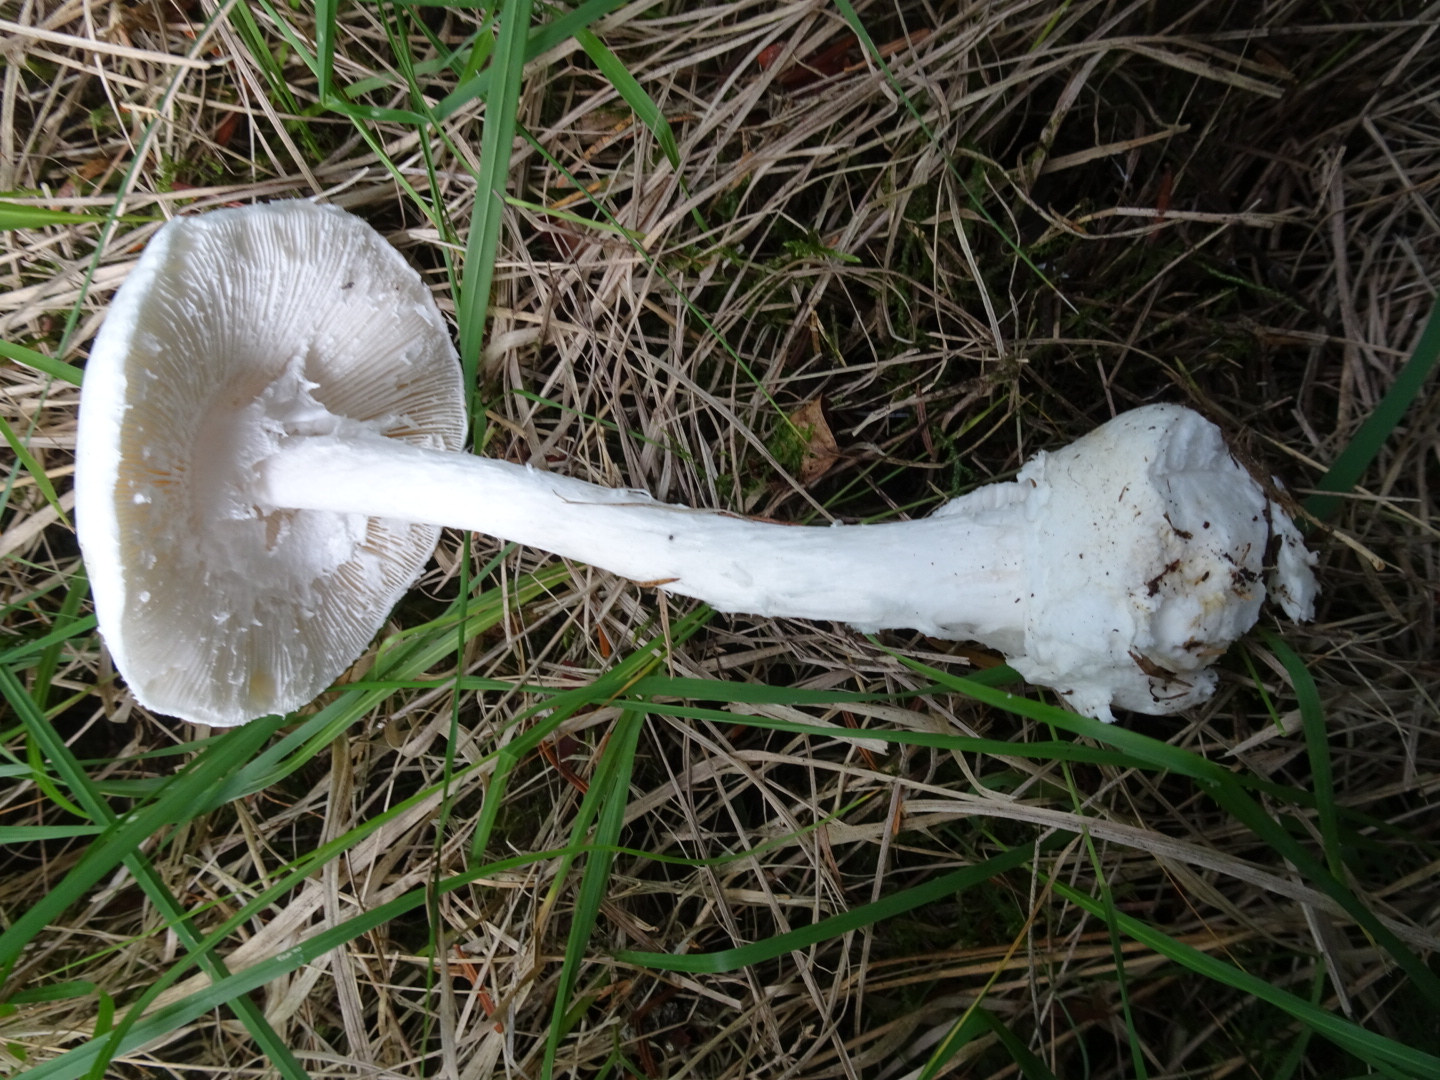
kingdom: Fungi
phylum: Basidiomycota
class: Agaricomycetes
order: Agaricales
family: Amanitaceae
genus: Amanita
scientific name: Amanita virosa
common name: snehvid fluesvamp
